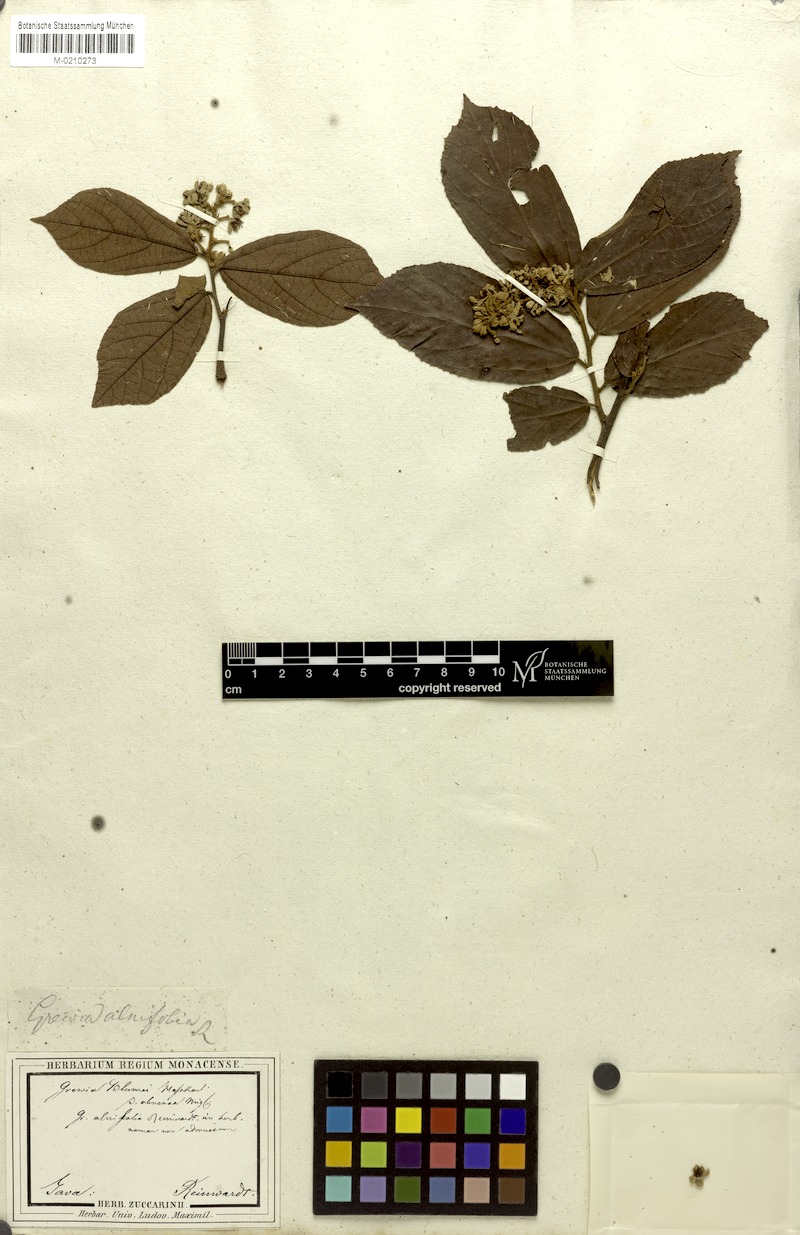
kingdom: Plantae
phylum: Tracheophyta
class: Magnoliopsida
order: Malvales
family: Malvaceae
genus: Microcos
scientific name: Microcos tomentosa
